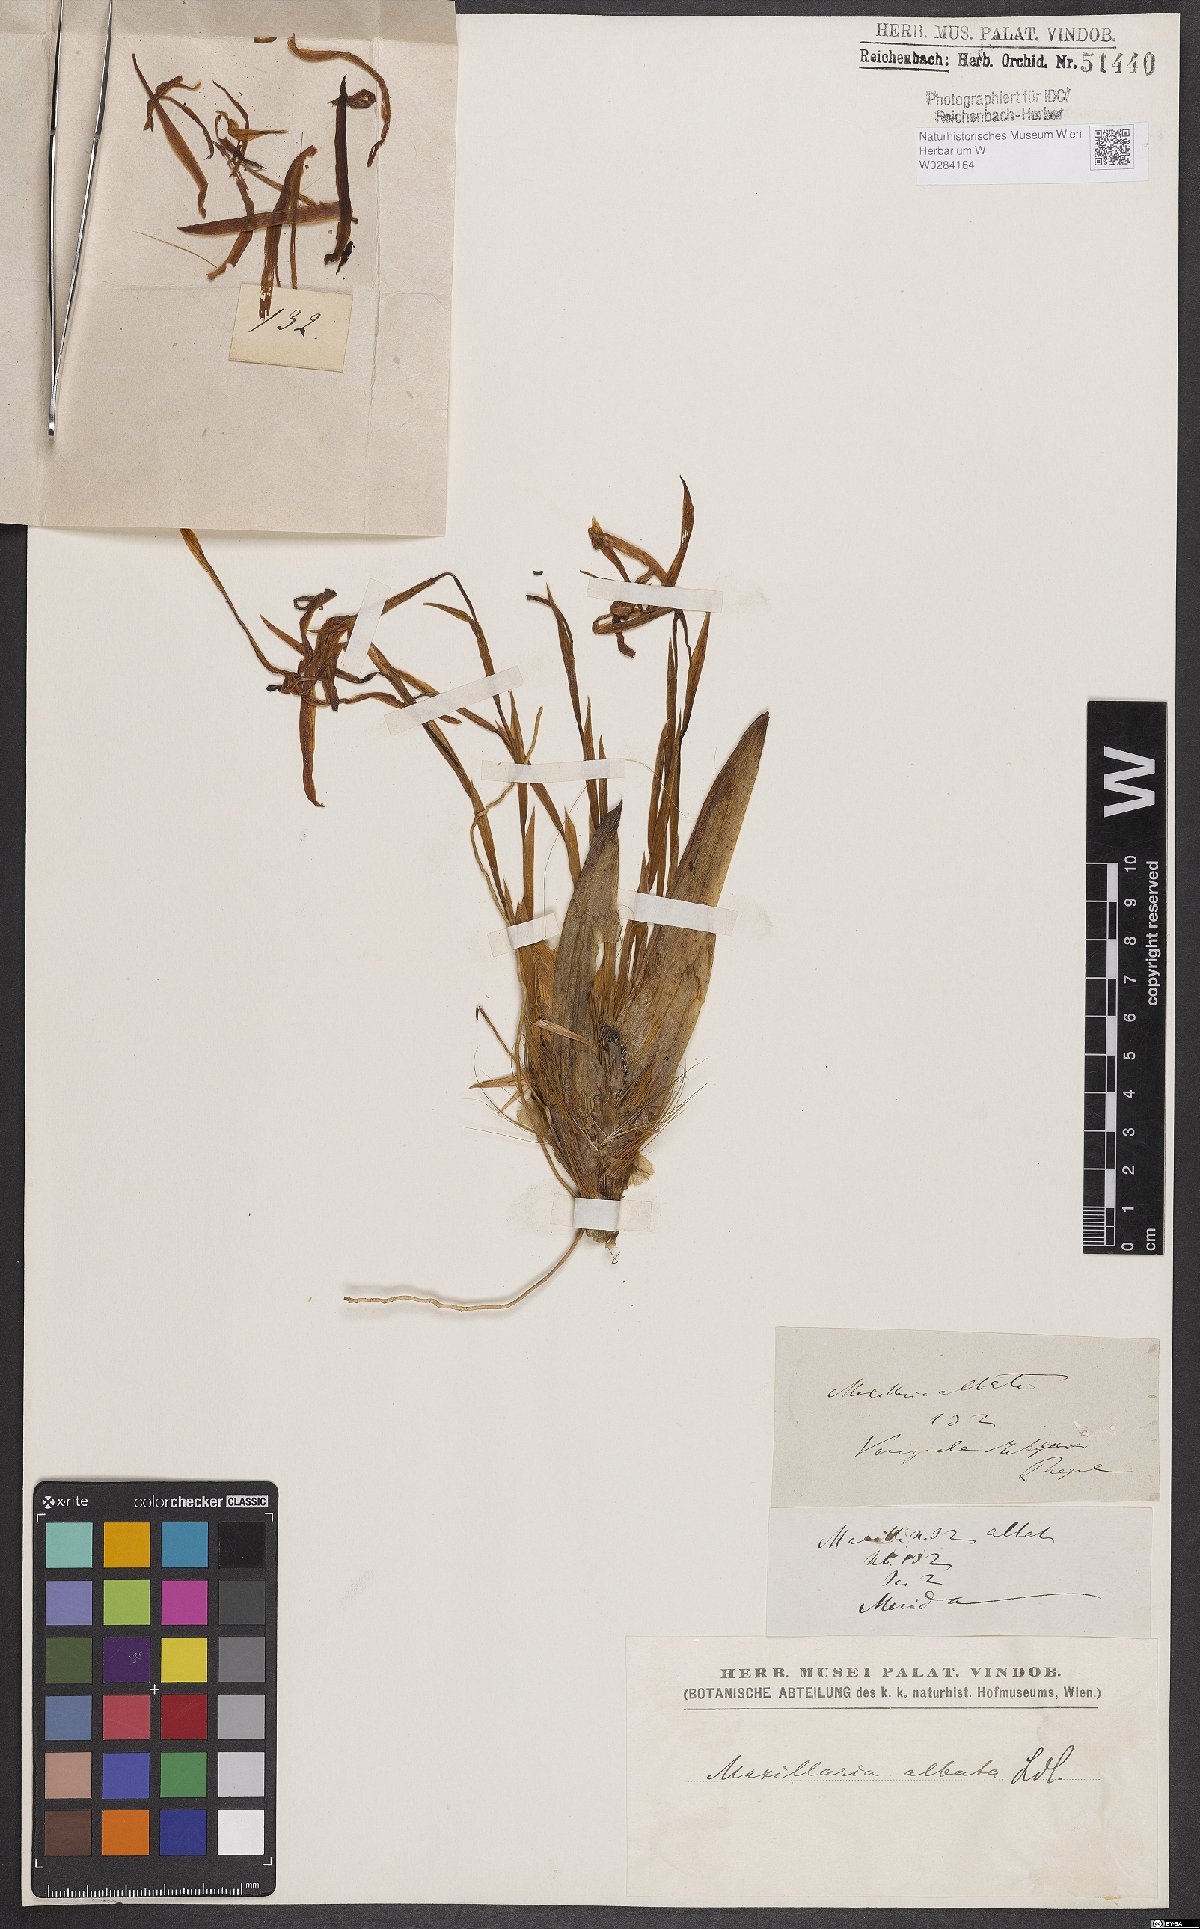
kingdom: Plantae
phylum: Tracheophyta
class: Liliopsida
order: Asparagales
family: Orchidaceae
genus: Maxillaria
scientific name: Maxillaria albata
